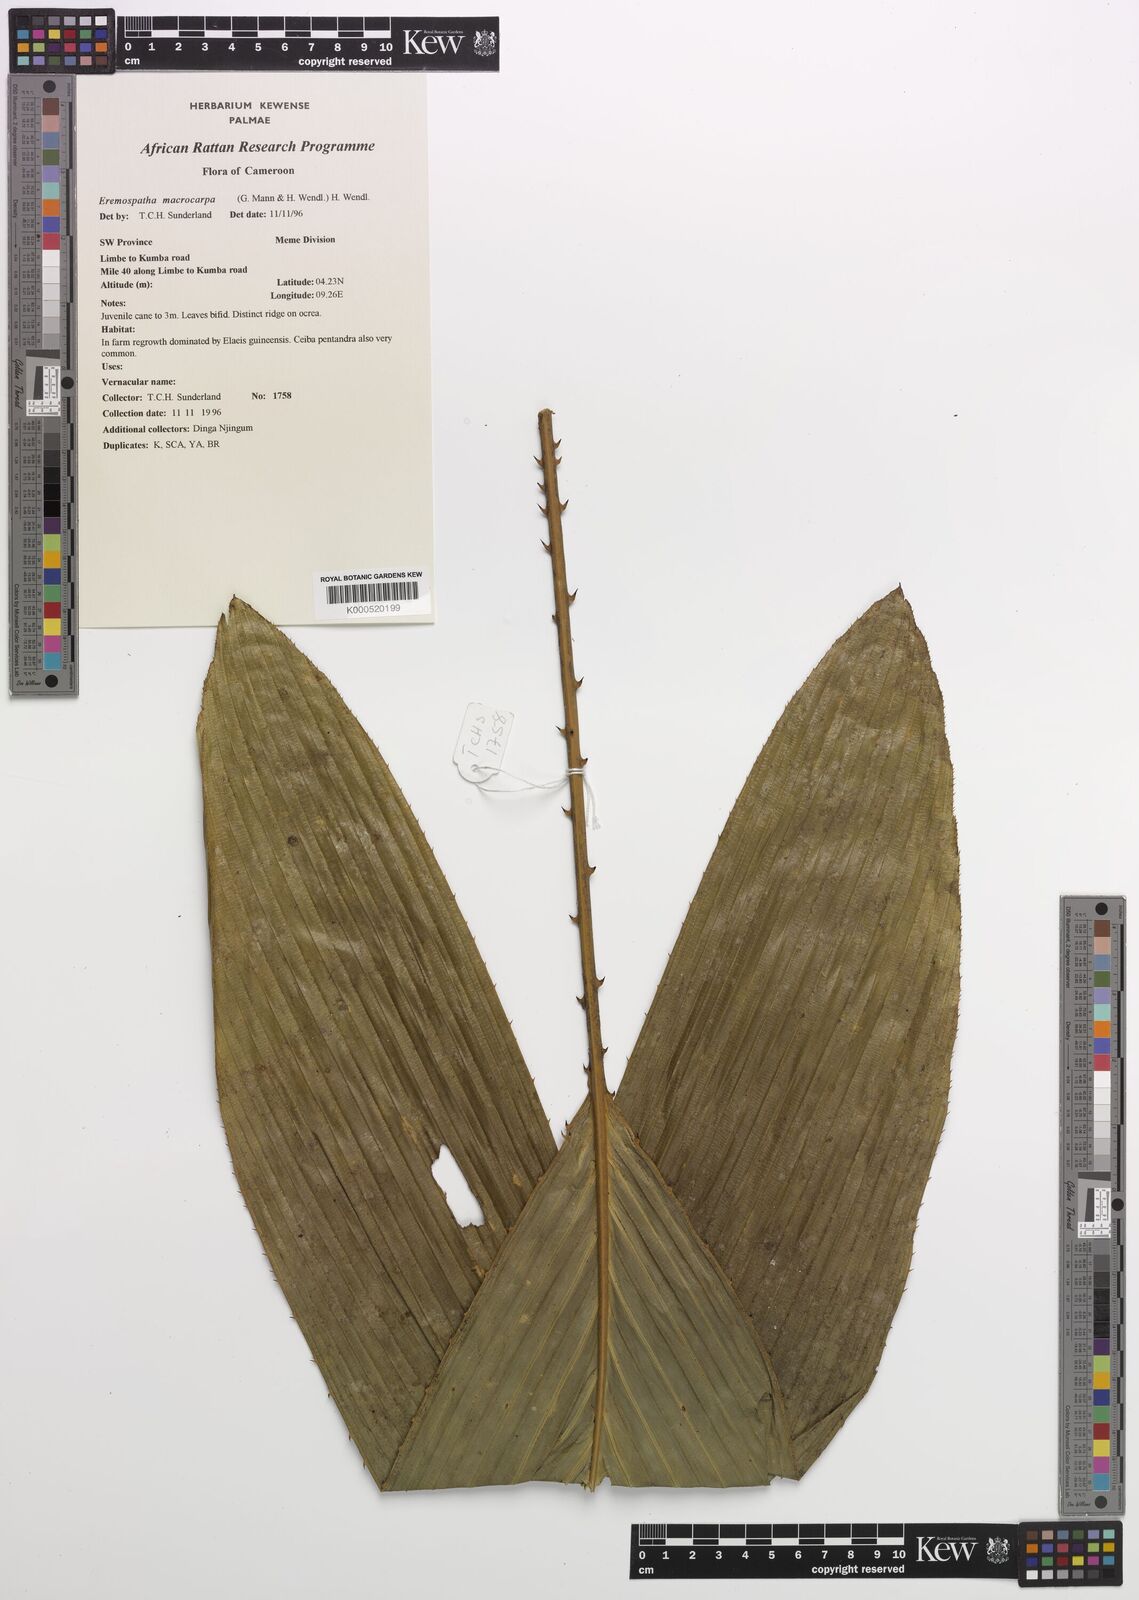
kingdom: Plantae
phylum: Tracheophyta
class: Liliopsida
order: Arecales
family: Arecaceae
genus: Eremospatha
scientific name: Eremospatha
